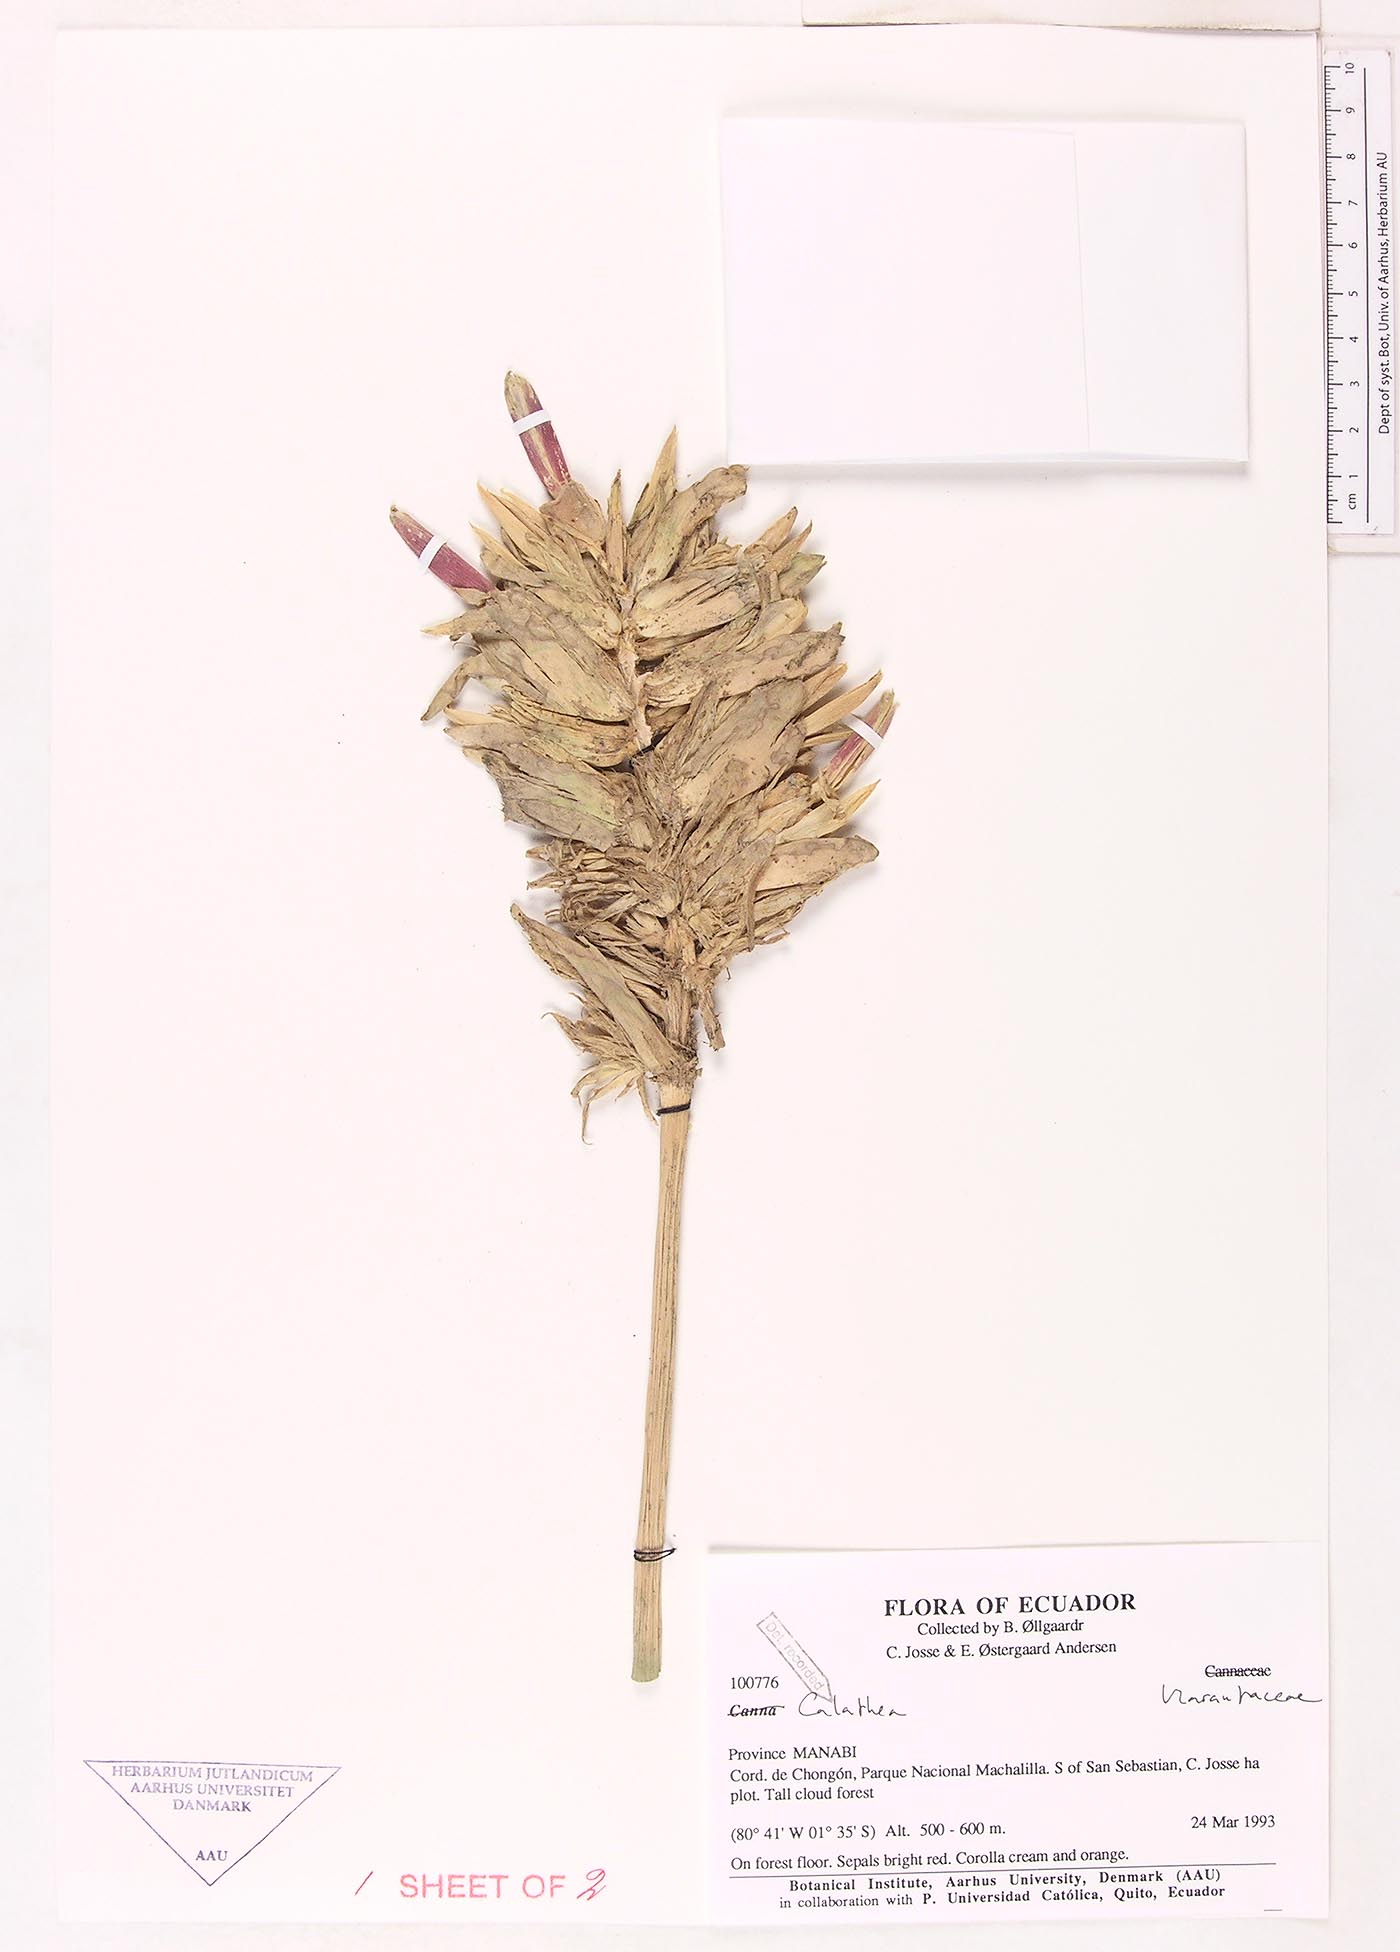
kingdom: Plantae
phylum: Tracheophyta
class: Magnoliopsida
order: Laurales
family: Lauraceae
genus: Goeppertia
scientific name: Goeppertia
